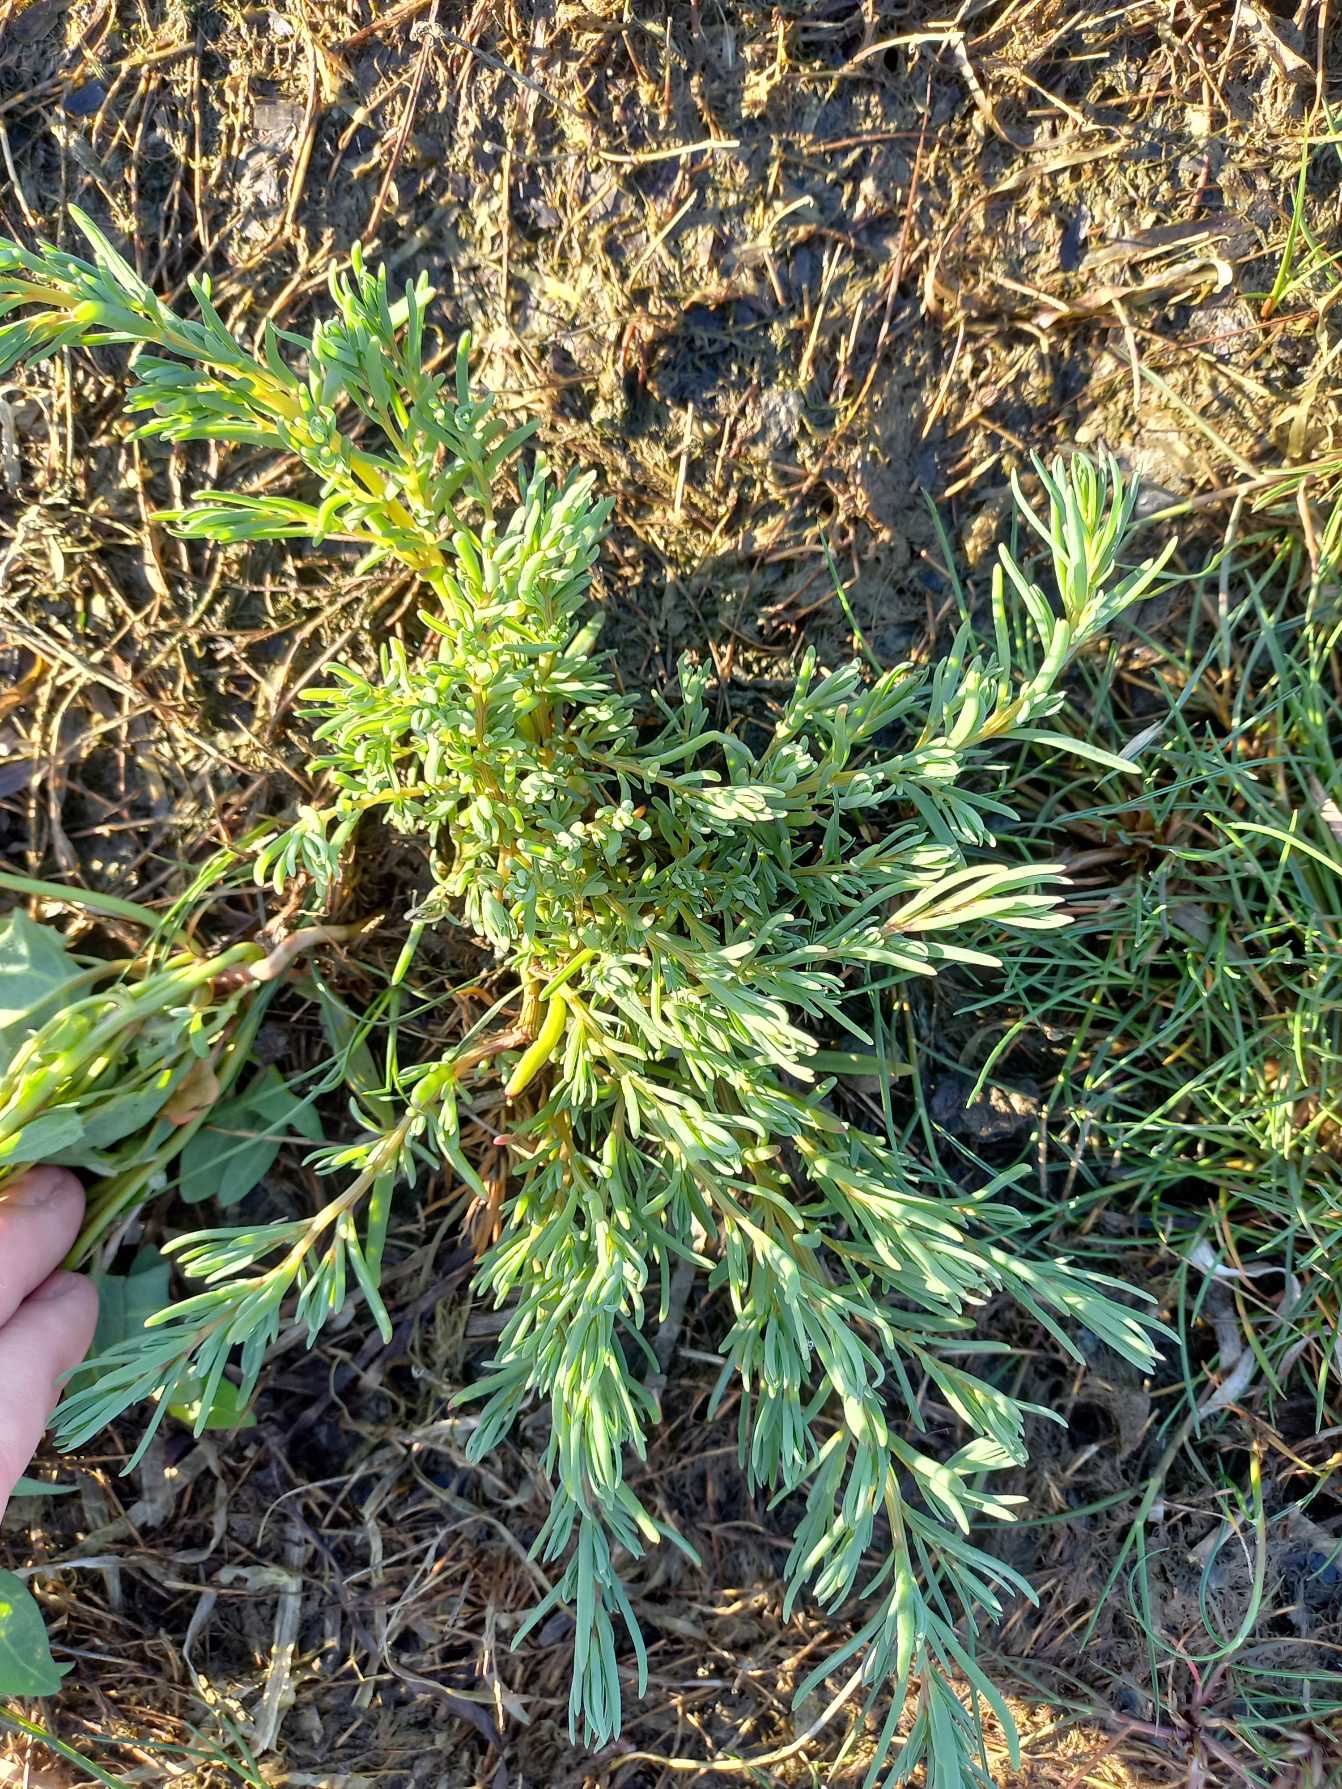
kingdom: Plantae
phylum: Tracheophyta
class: Magnoliopsida
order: Caryophyllales
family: Amaranthaceae
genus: Suaeda
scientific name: Suaeda maritima
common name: Strandgåsefod
